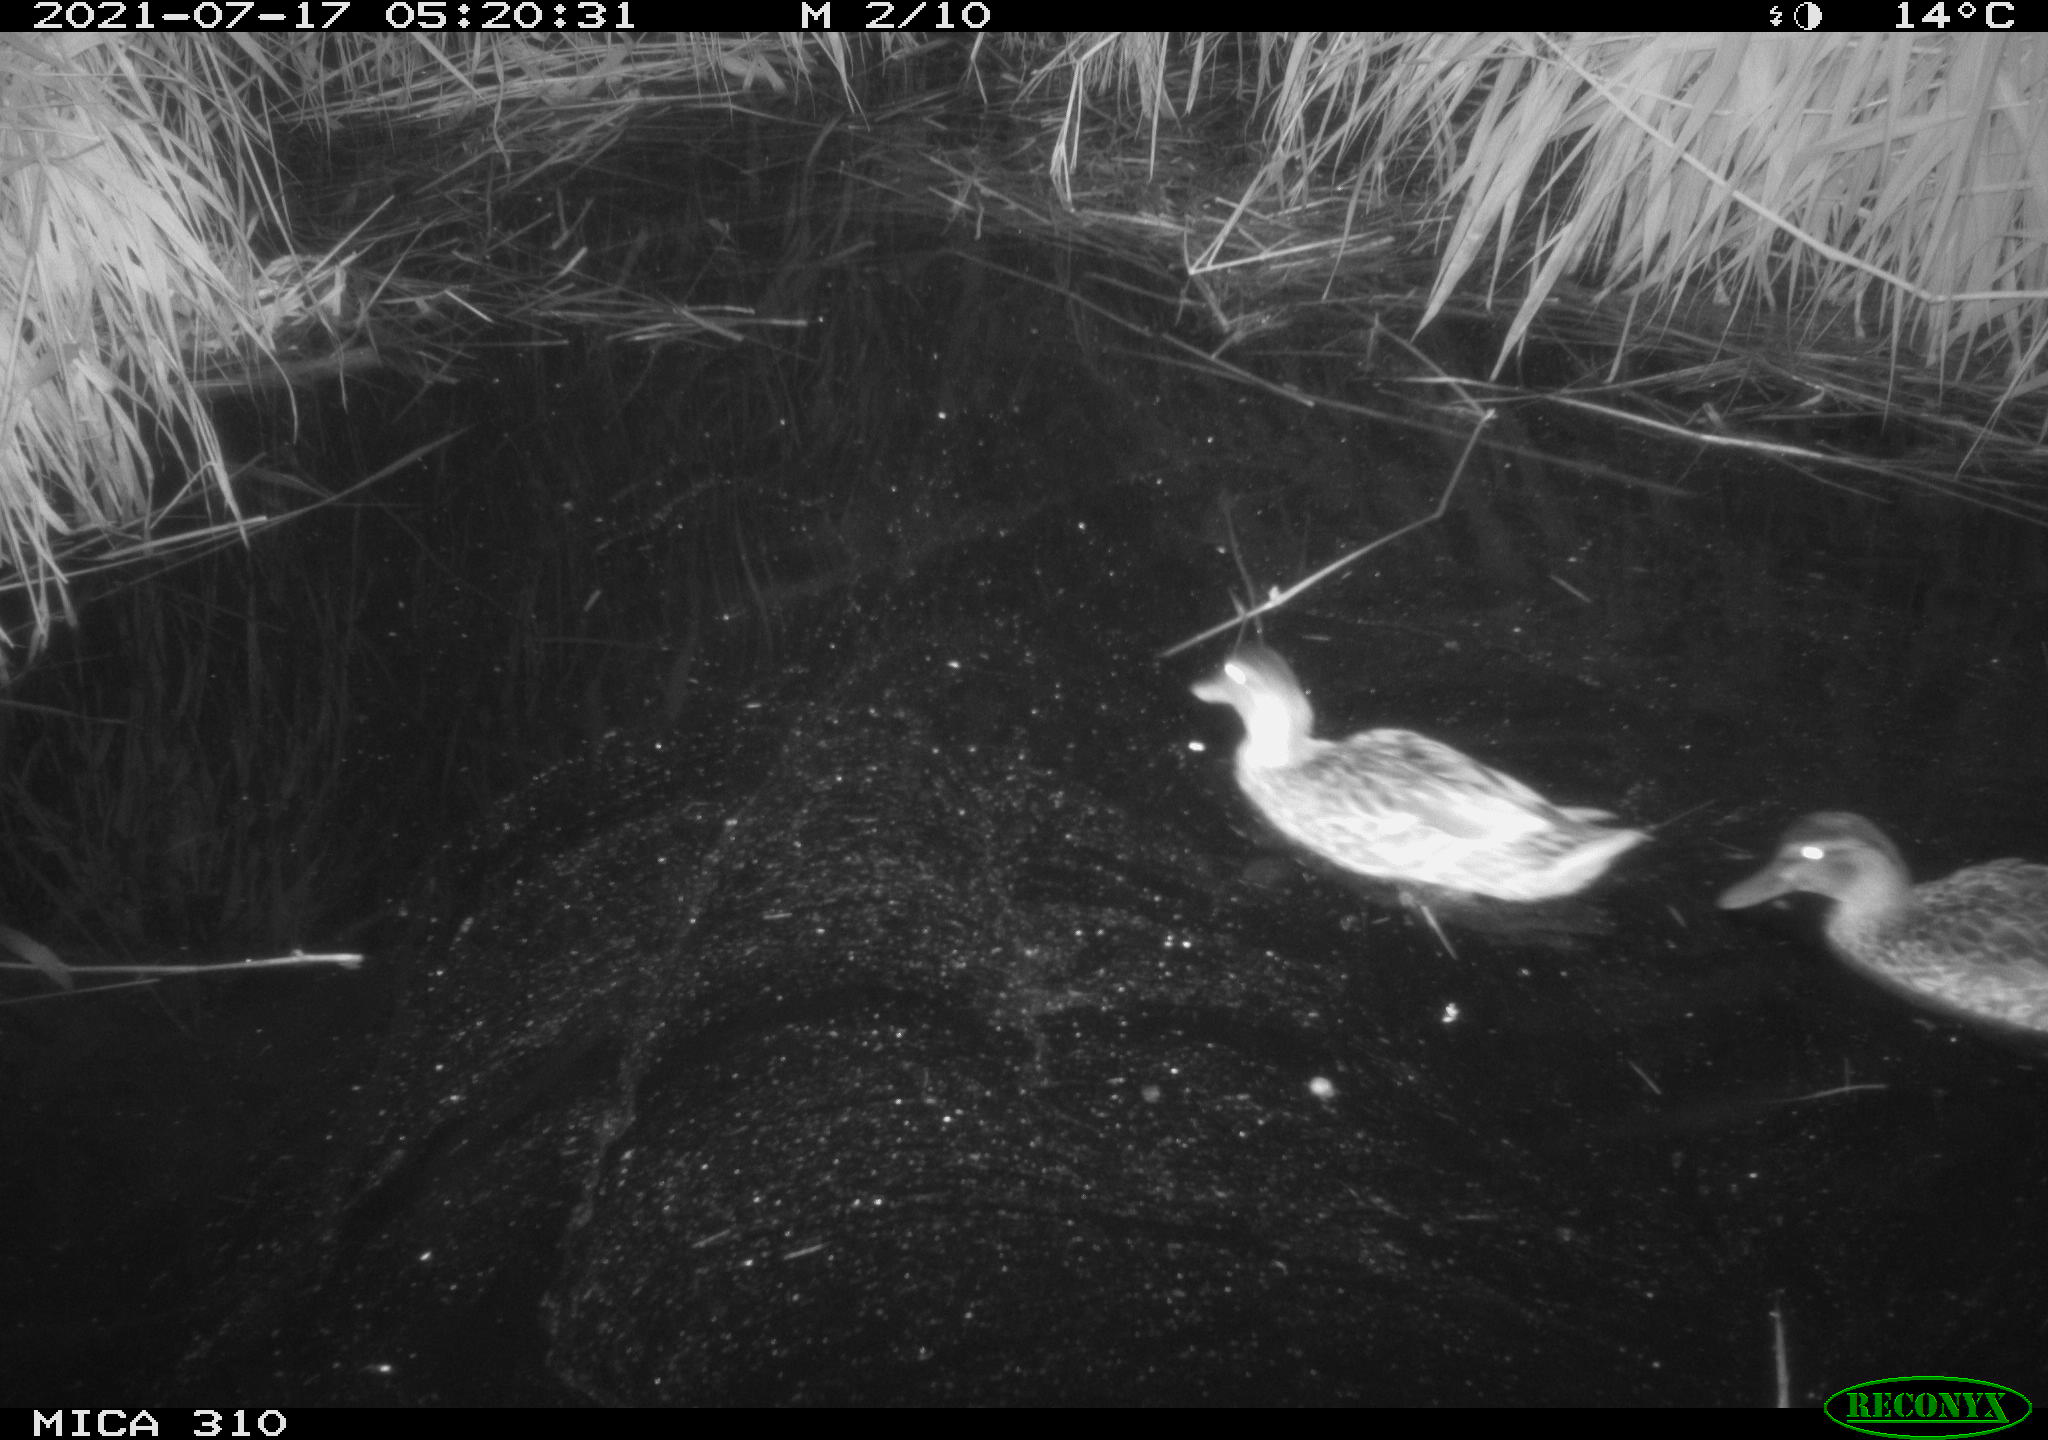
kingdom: Animalia
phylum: Chordata
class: Aves
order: Anseriformes
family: Anatidae
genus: Anas
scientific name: Anas platyrhynchos
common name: Mallard
